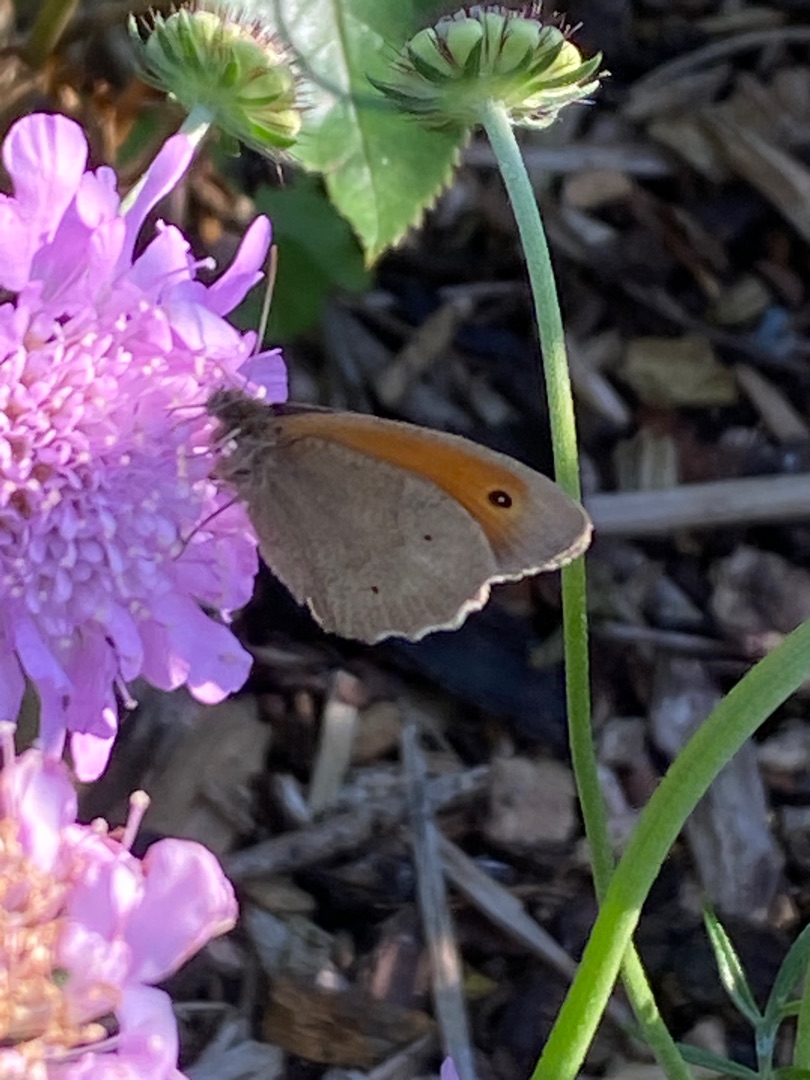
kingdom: Animalia
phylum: Arthropoda
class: Insecta
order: Lepidoptera
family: Nymphalidae
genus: Maniola
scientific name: Maniola jurtina
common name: Græsrandøje
